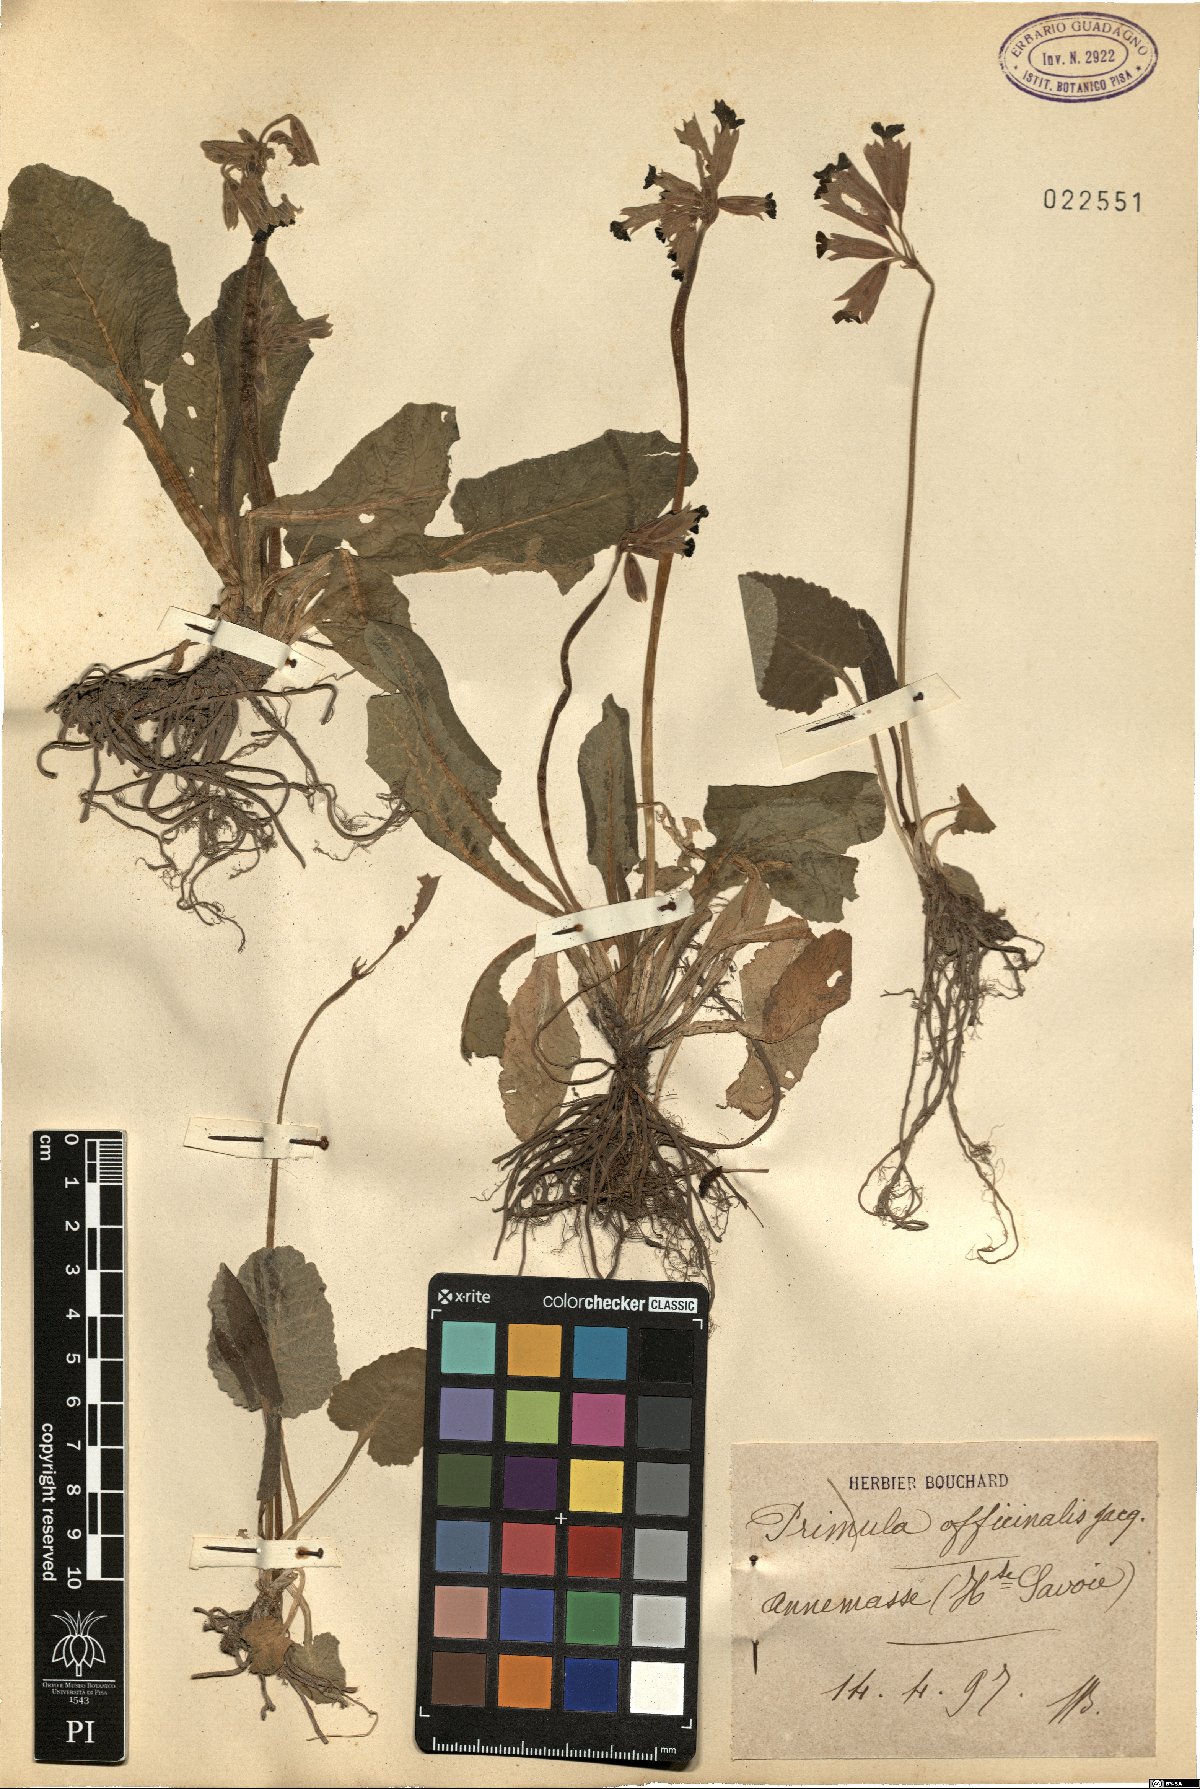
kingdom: Plantae
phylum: Tracheophyta
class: Magnoliopsida
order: Ericales
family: Primulaceae
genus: Primula
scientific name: Primula veris
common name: Cowslip
